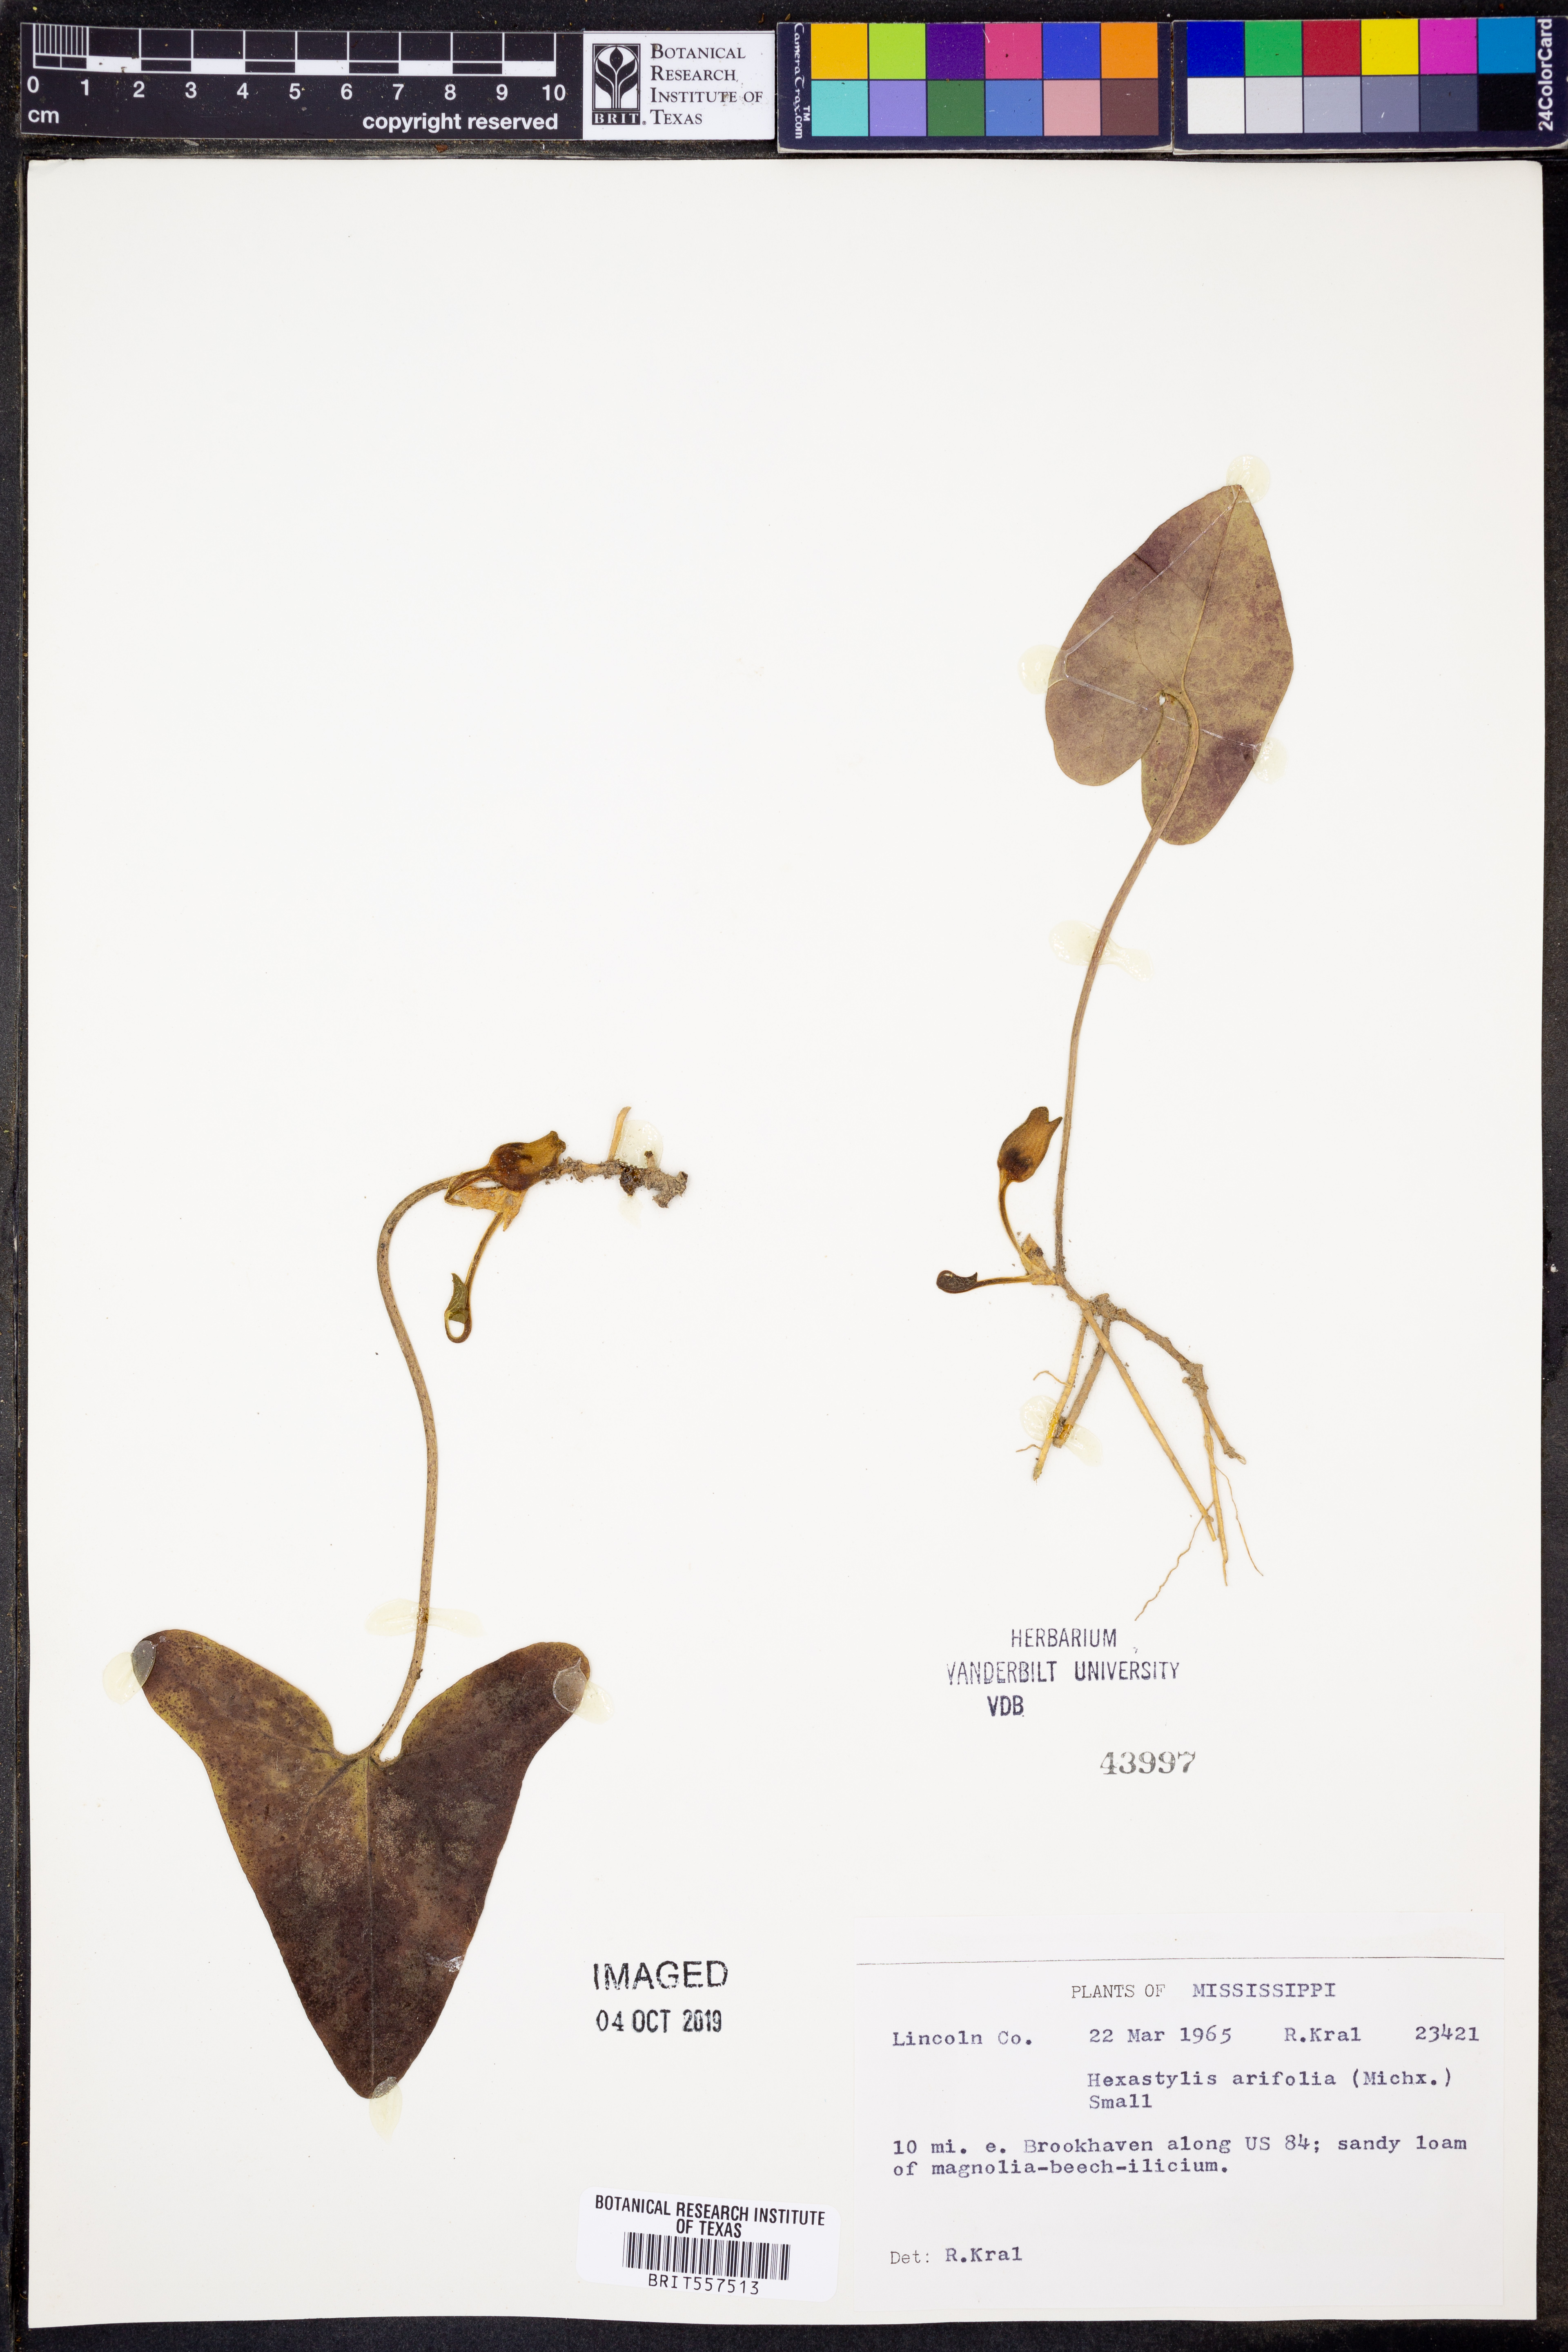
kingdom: Plantae
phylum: Tracheophyta
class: Magnoliopsida
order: Piperales
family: Aristolochiaceae
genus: Hexastylis
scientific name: Hexastylis arifolia
